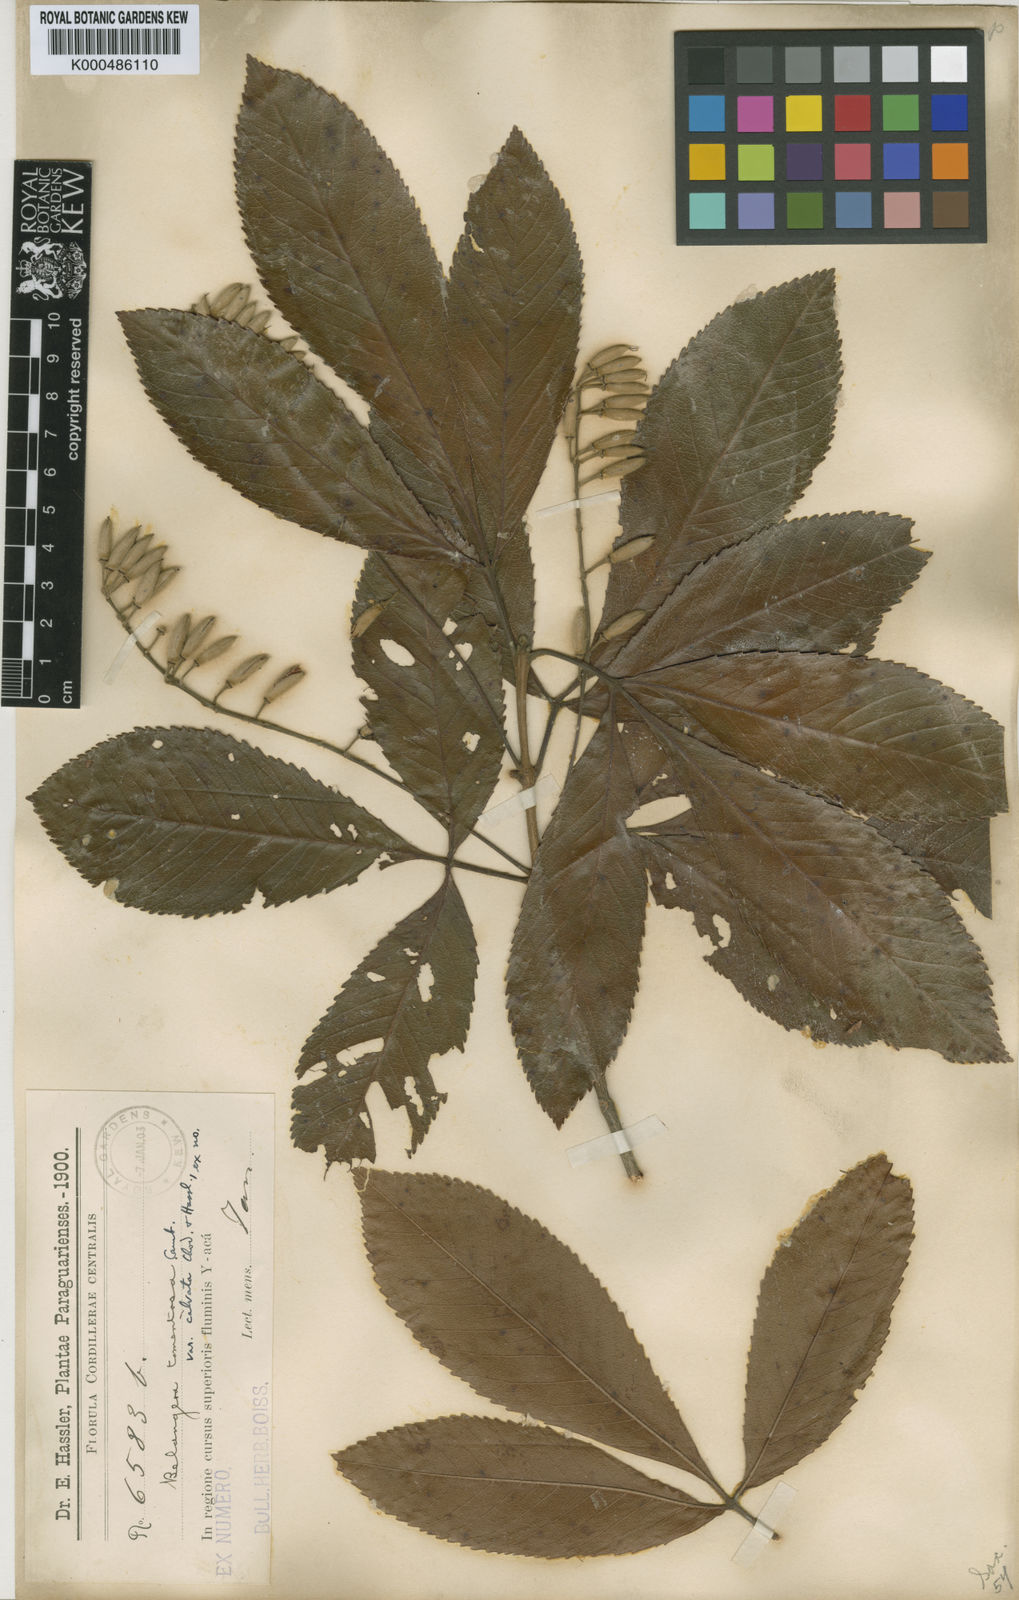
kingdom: Plantae
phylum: Tracheophyta
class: Magnoliopsida
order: Oxalidales
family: Cunoniaceae
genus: Lamanonia
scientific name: Lamanonia ternata
